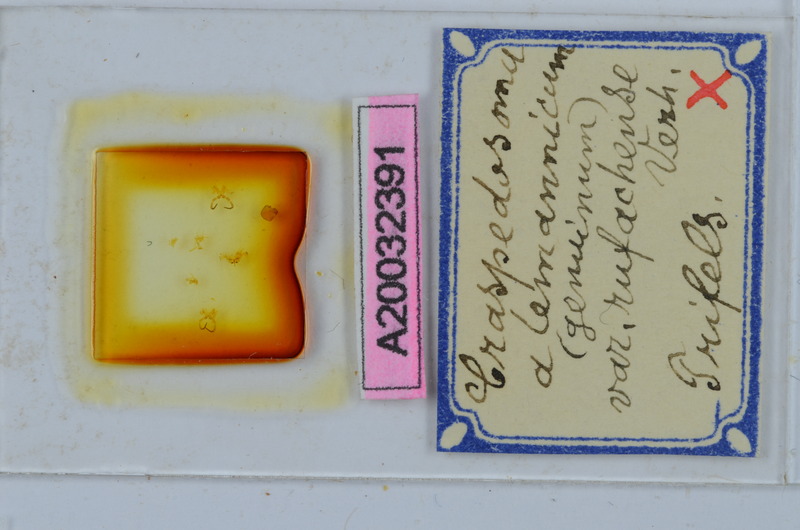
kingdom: Animalia
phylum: Arthropoda
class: Diplopoda
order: Chordeumatida
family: Craspedosomatidae
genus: Craspedosoma
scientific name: Craspedosoma rawlinsii
